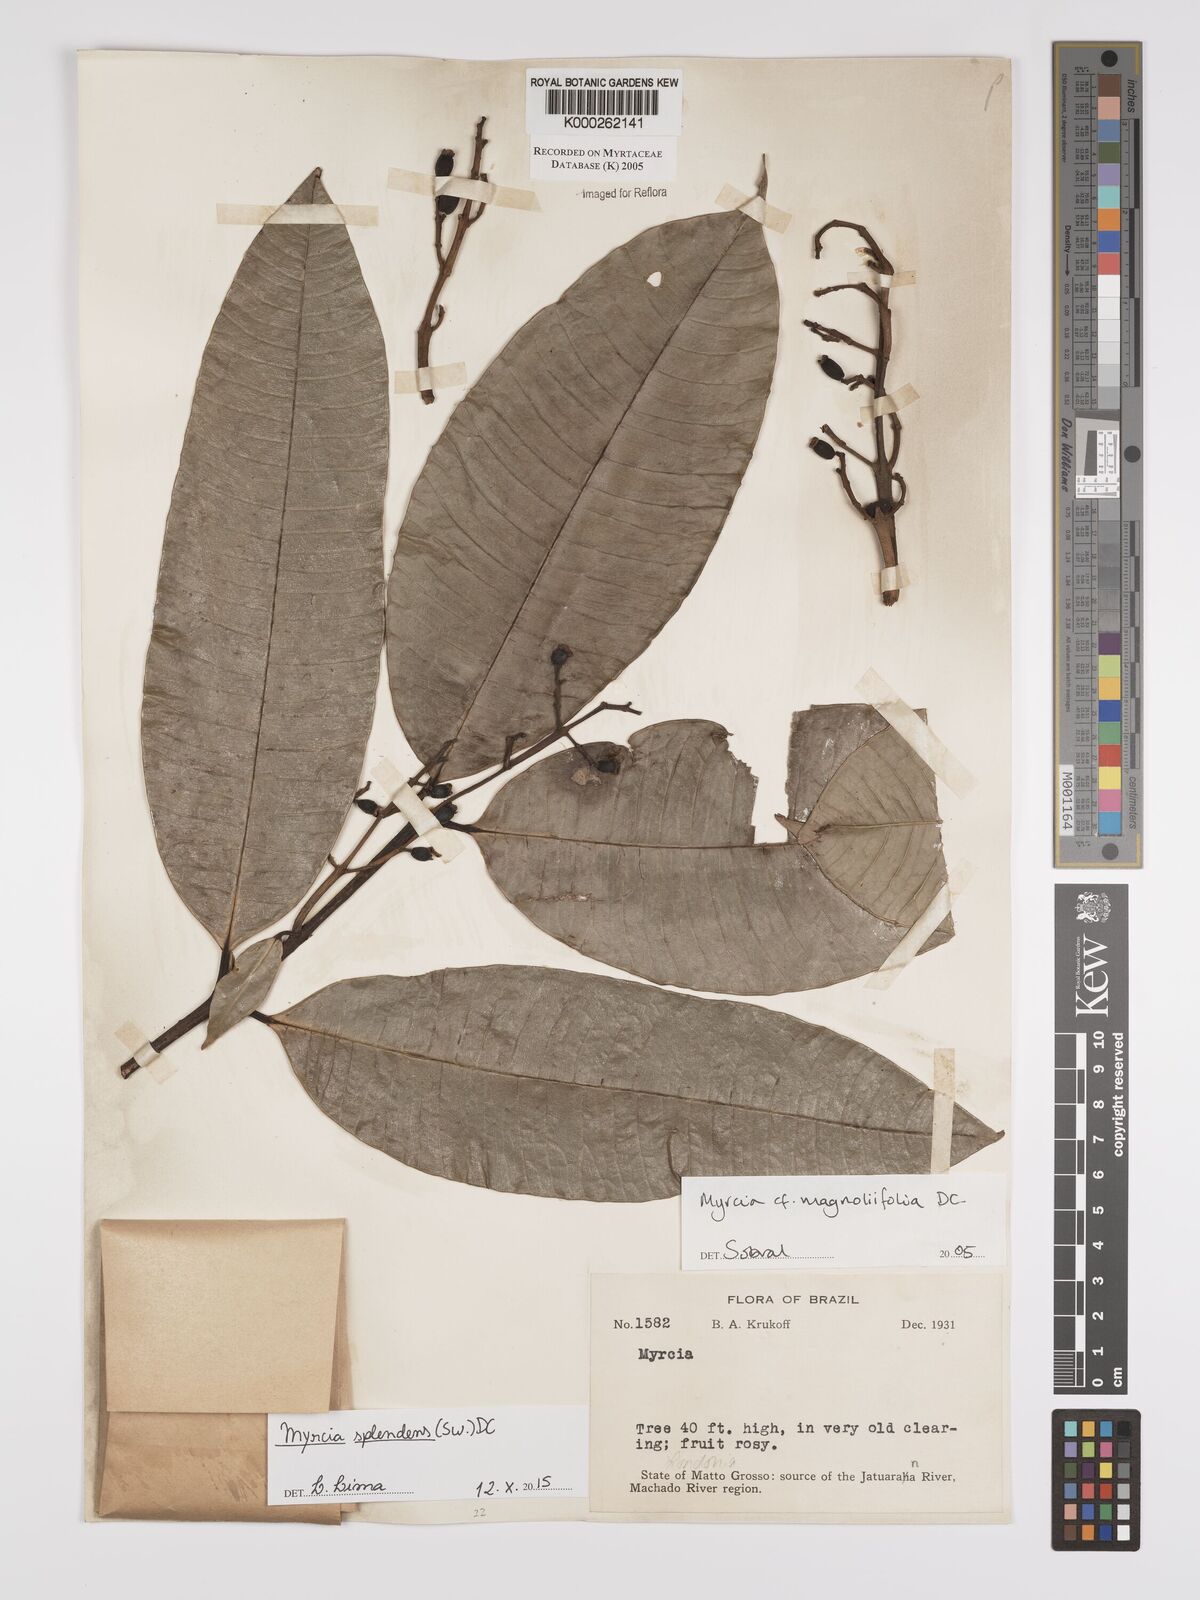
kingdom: Plantae
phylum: Tracheophyta
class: Magnoliopsida
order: Myrtales
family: Myrtaceae
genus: Myrcia
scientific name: Myrcia splendens
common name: Surinam cherry
